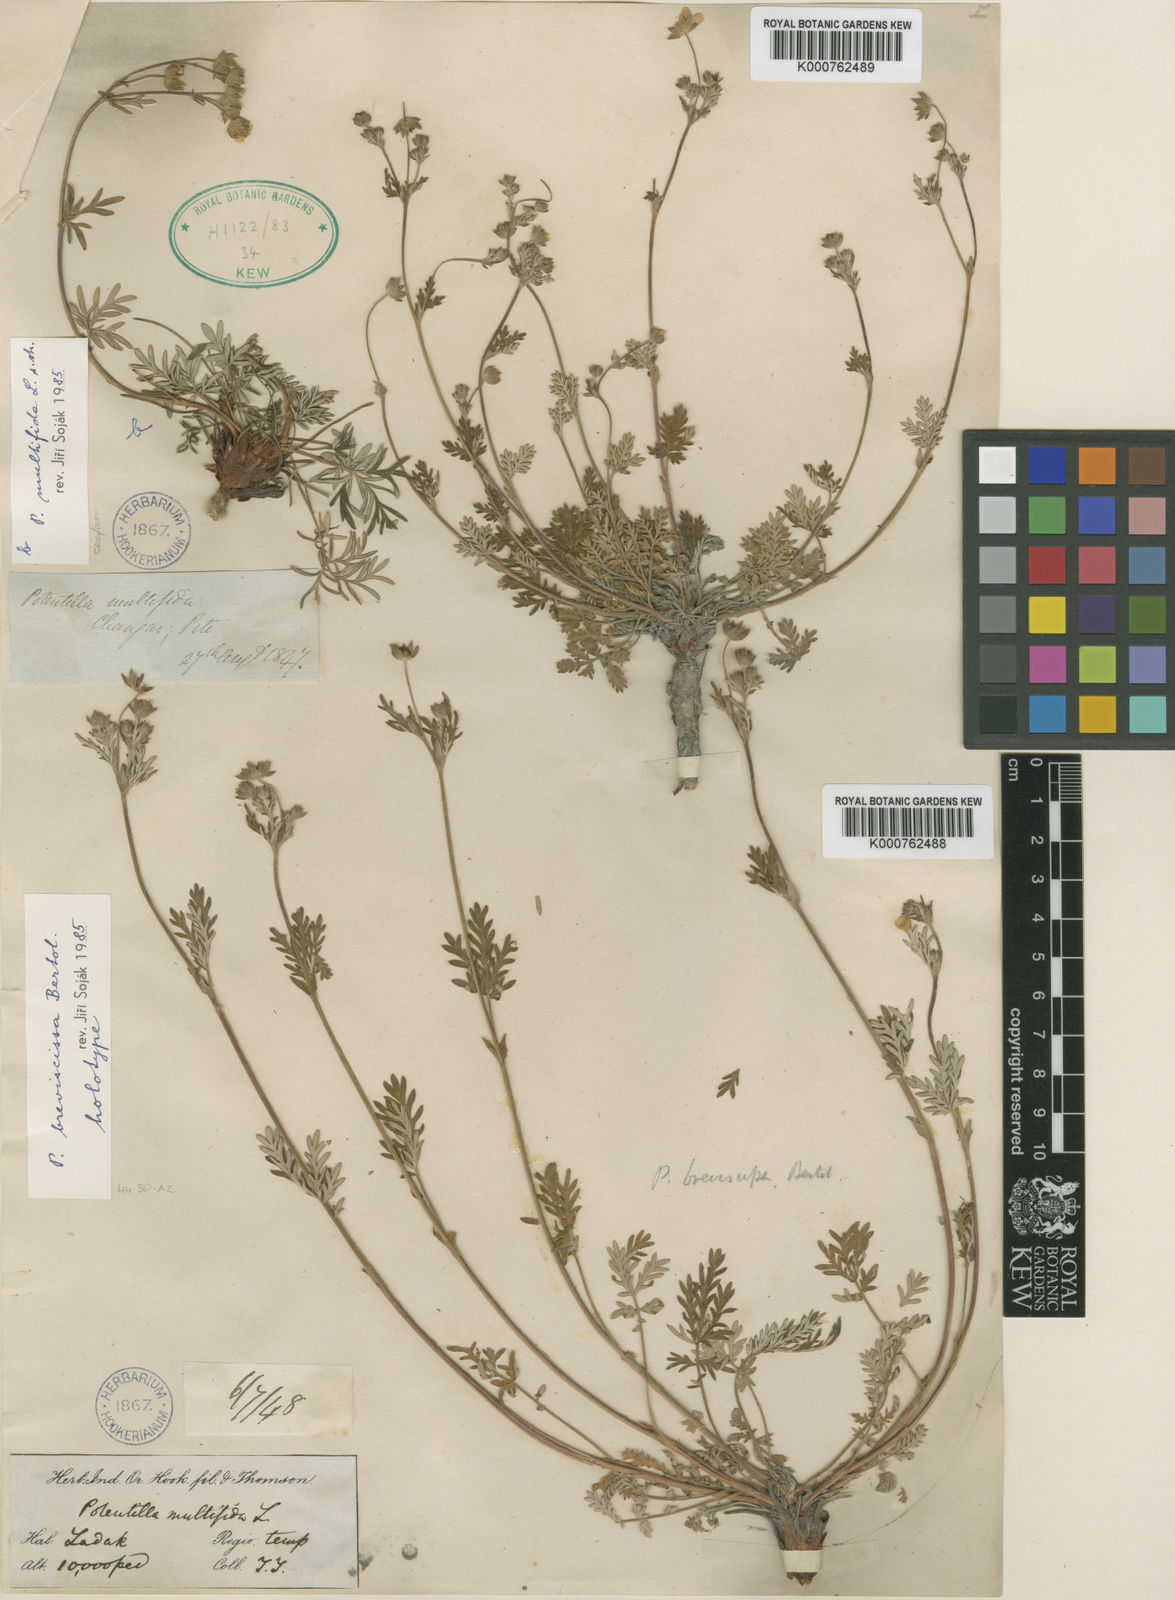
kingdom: Plantae
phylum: Tracheophyta
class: Magnoliopsida
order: Rosales
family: Rosaceae
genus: Potentilla
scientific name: Potentilla multifida
